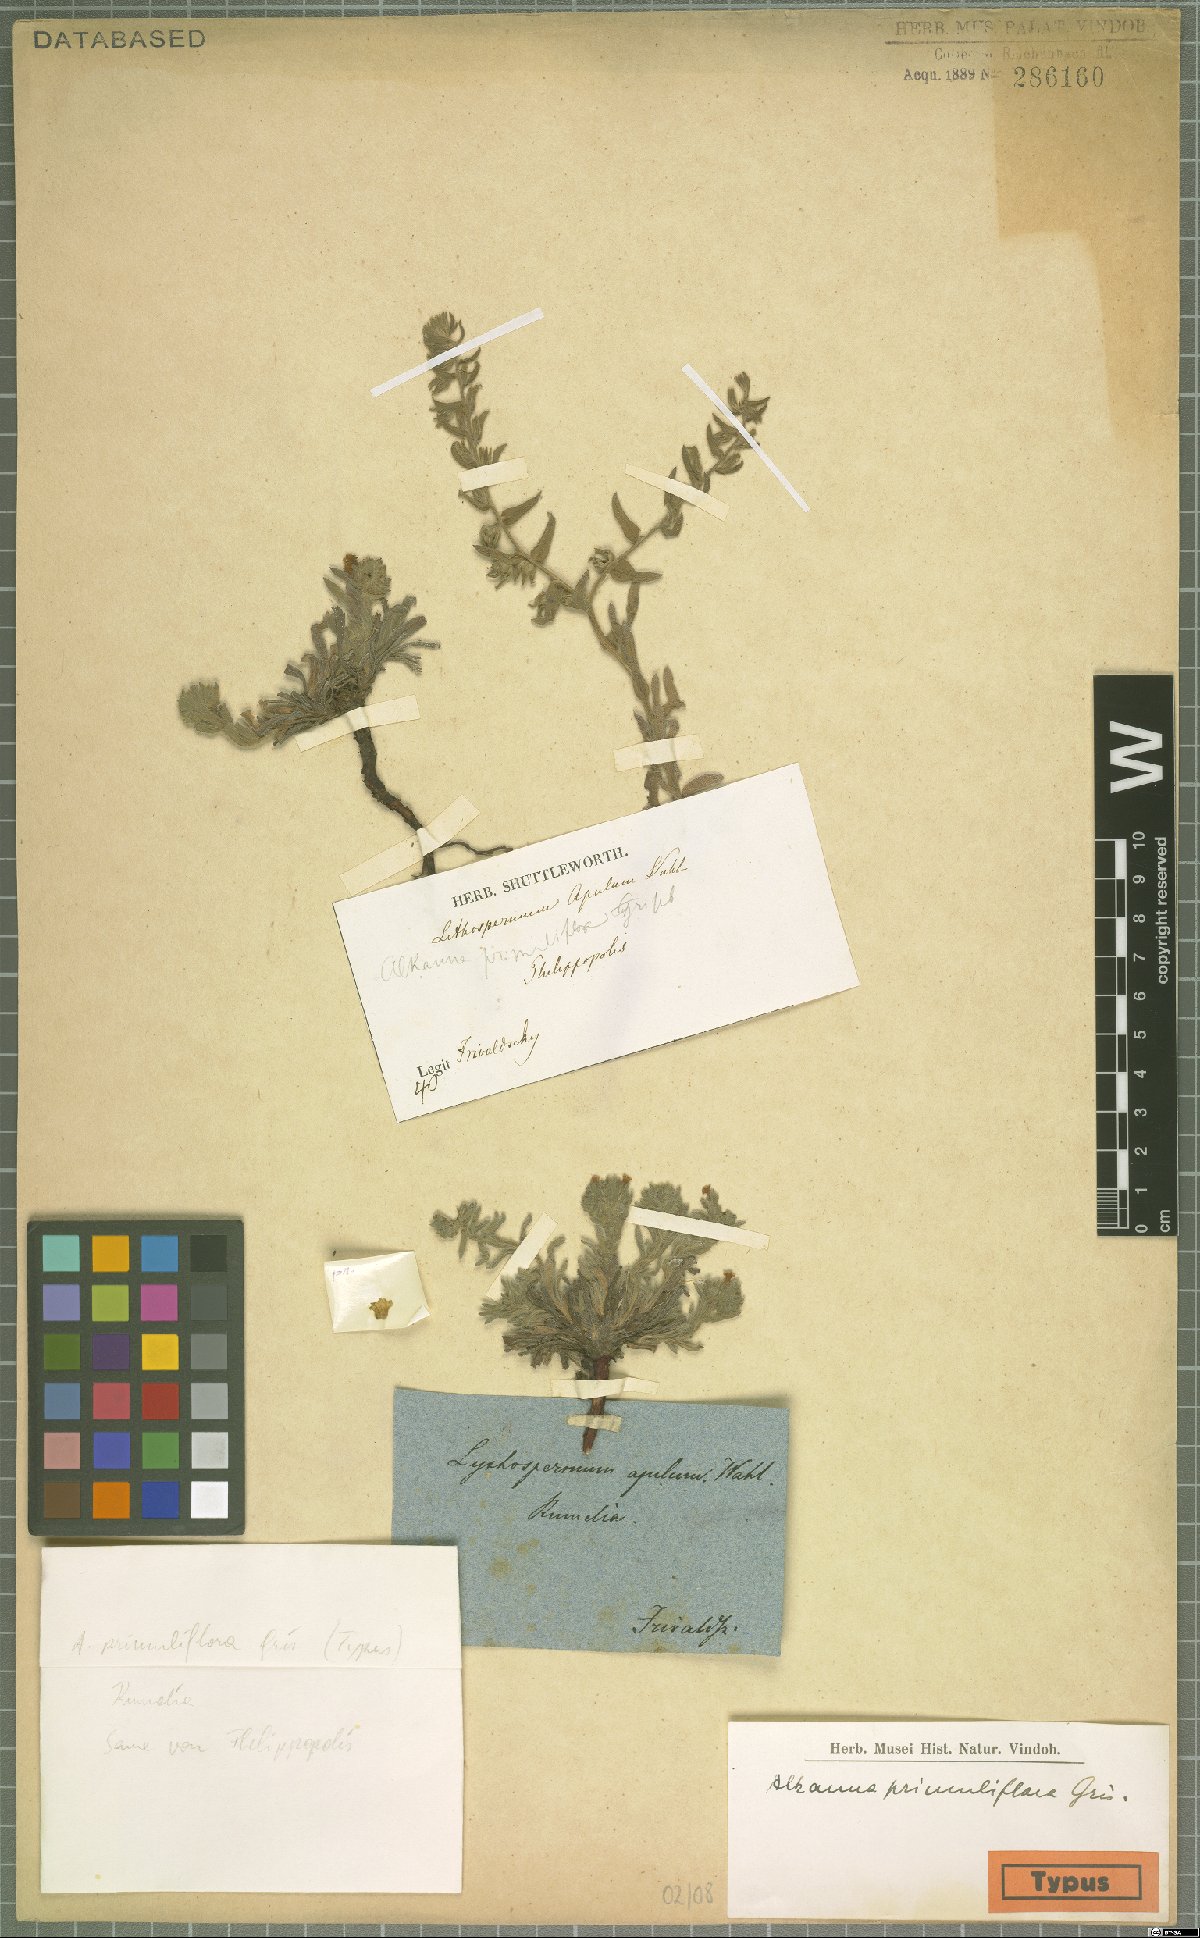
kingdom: Plantae
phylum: Tracheophyta
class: Magnoliopsida
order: Boraginales
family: Boraginaceae
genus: Alkanna
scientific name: Alkanna primuliflora
